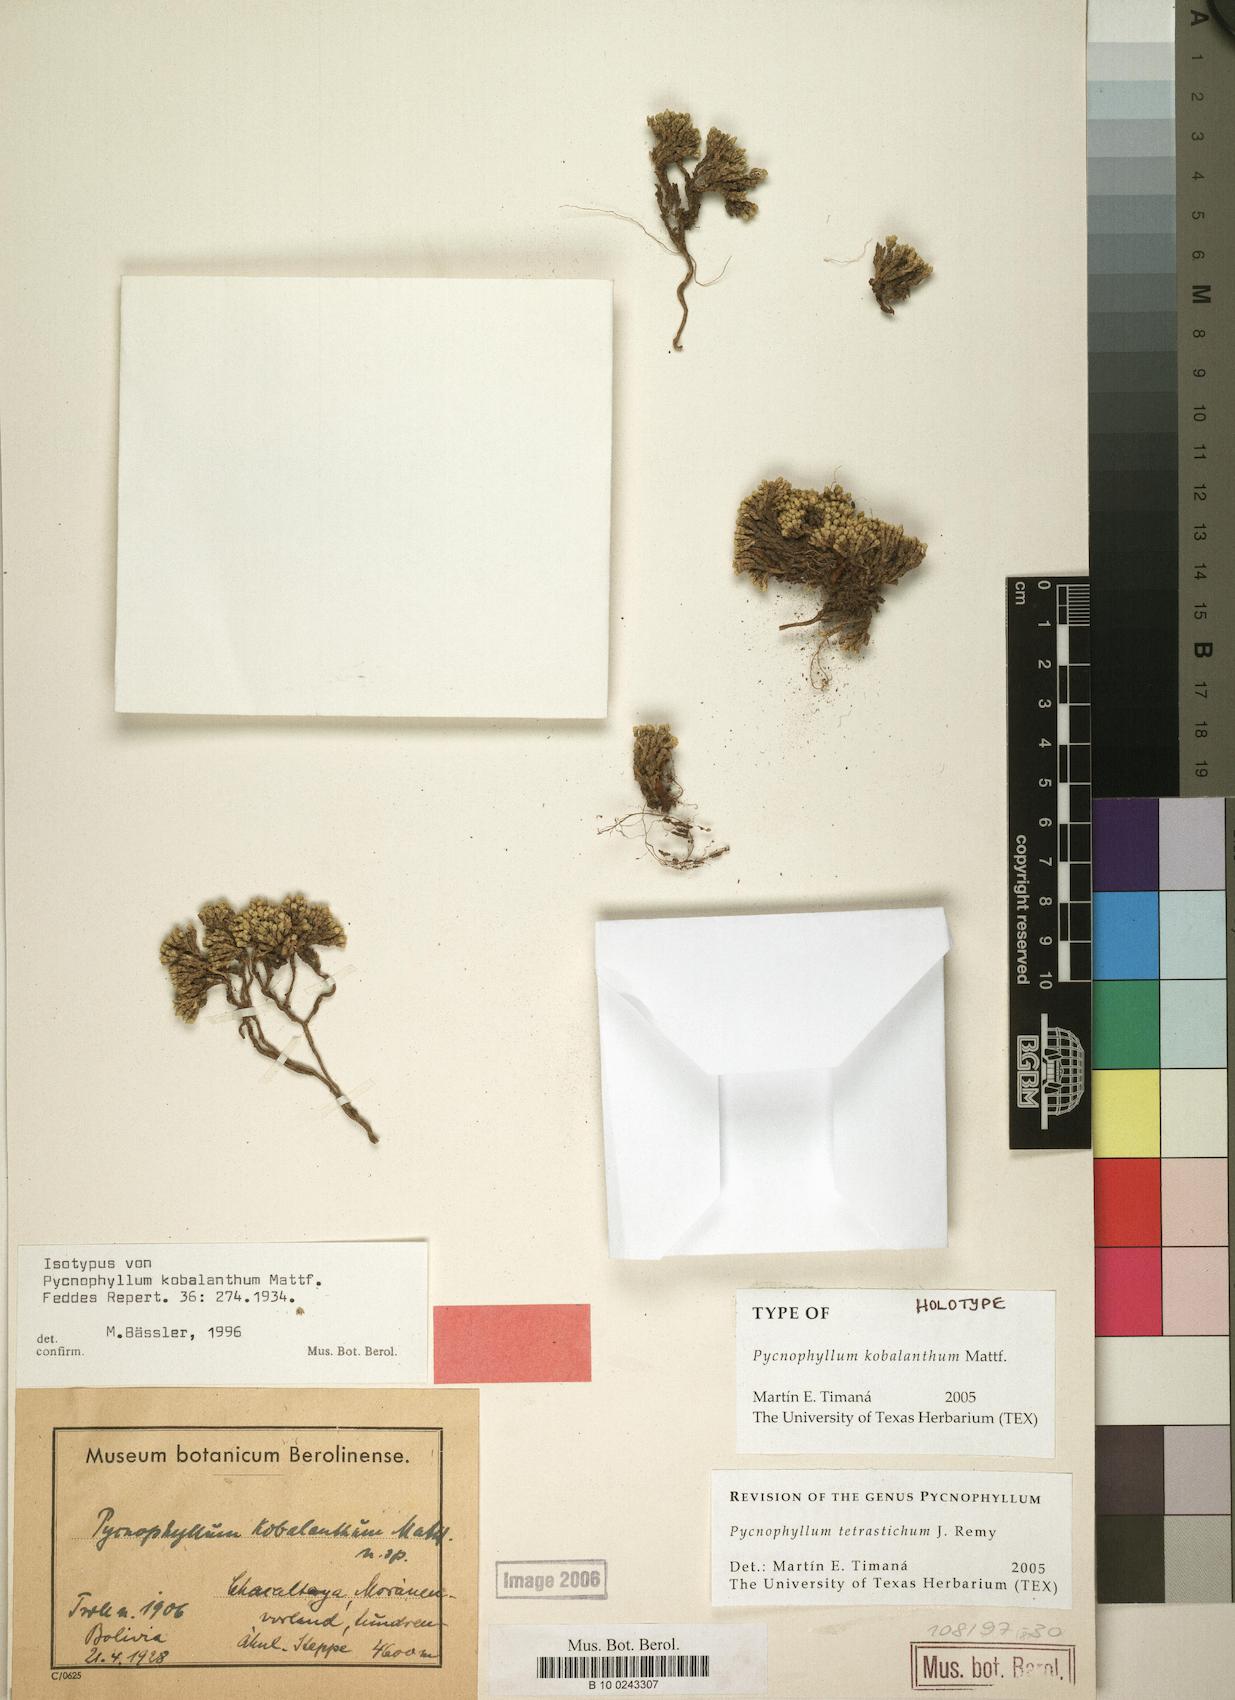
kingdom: Plantae
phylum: Tracheophyta
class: Magnoliopsida
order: Caryophyllales
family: Caryophyllaceae
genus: Pycnophyllum
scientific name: Pycnophyllum tetrastichum
